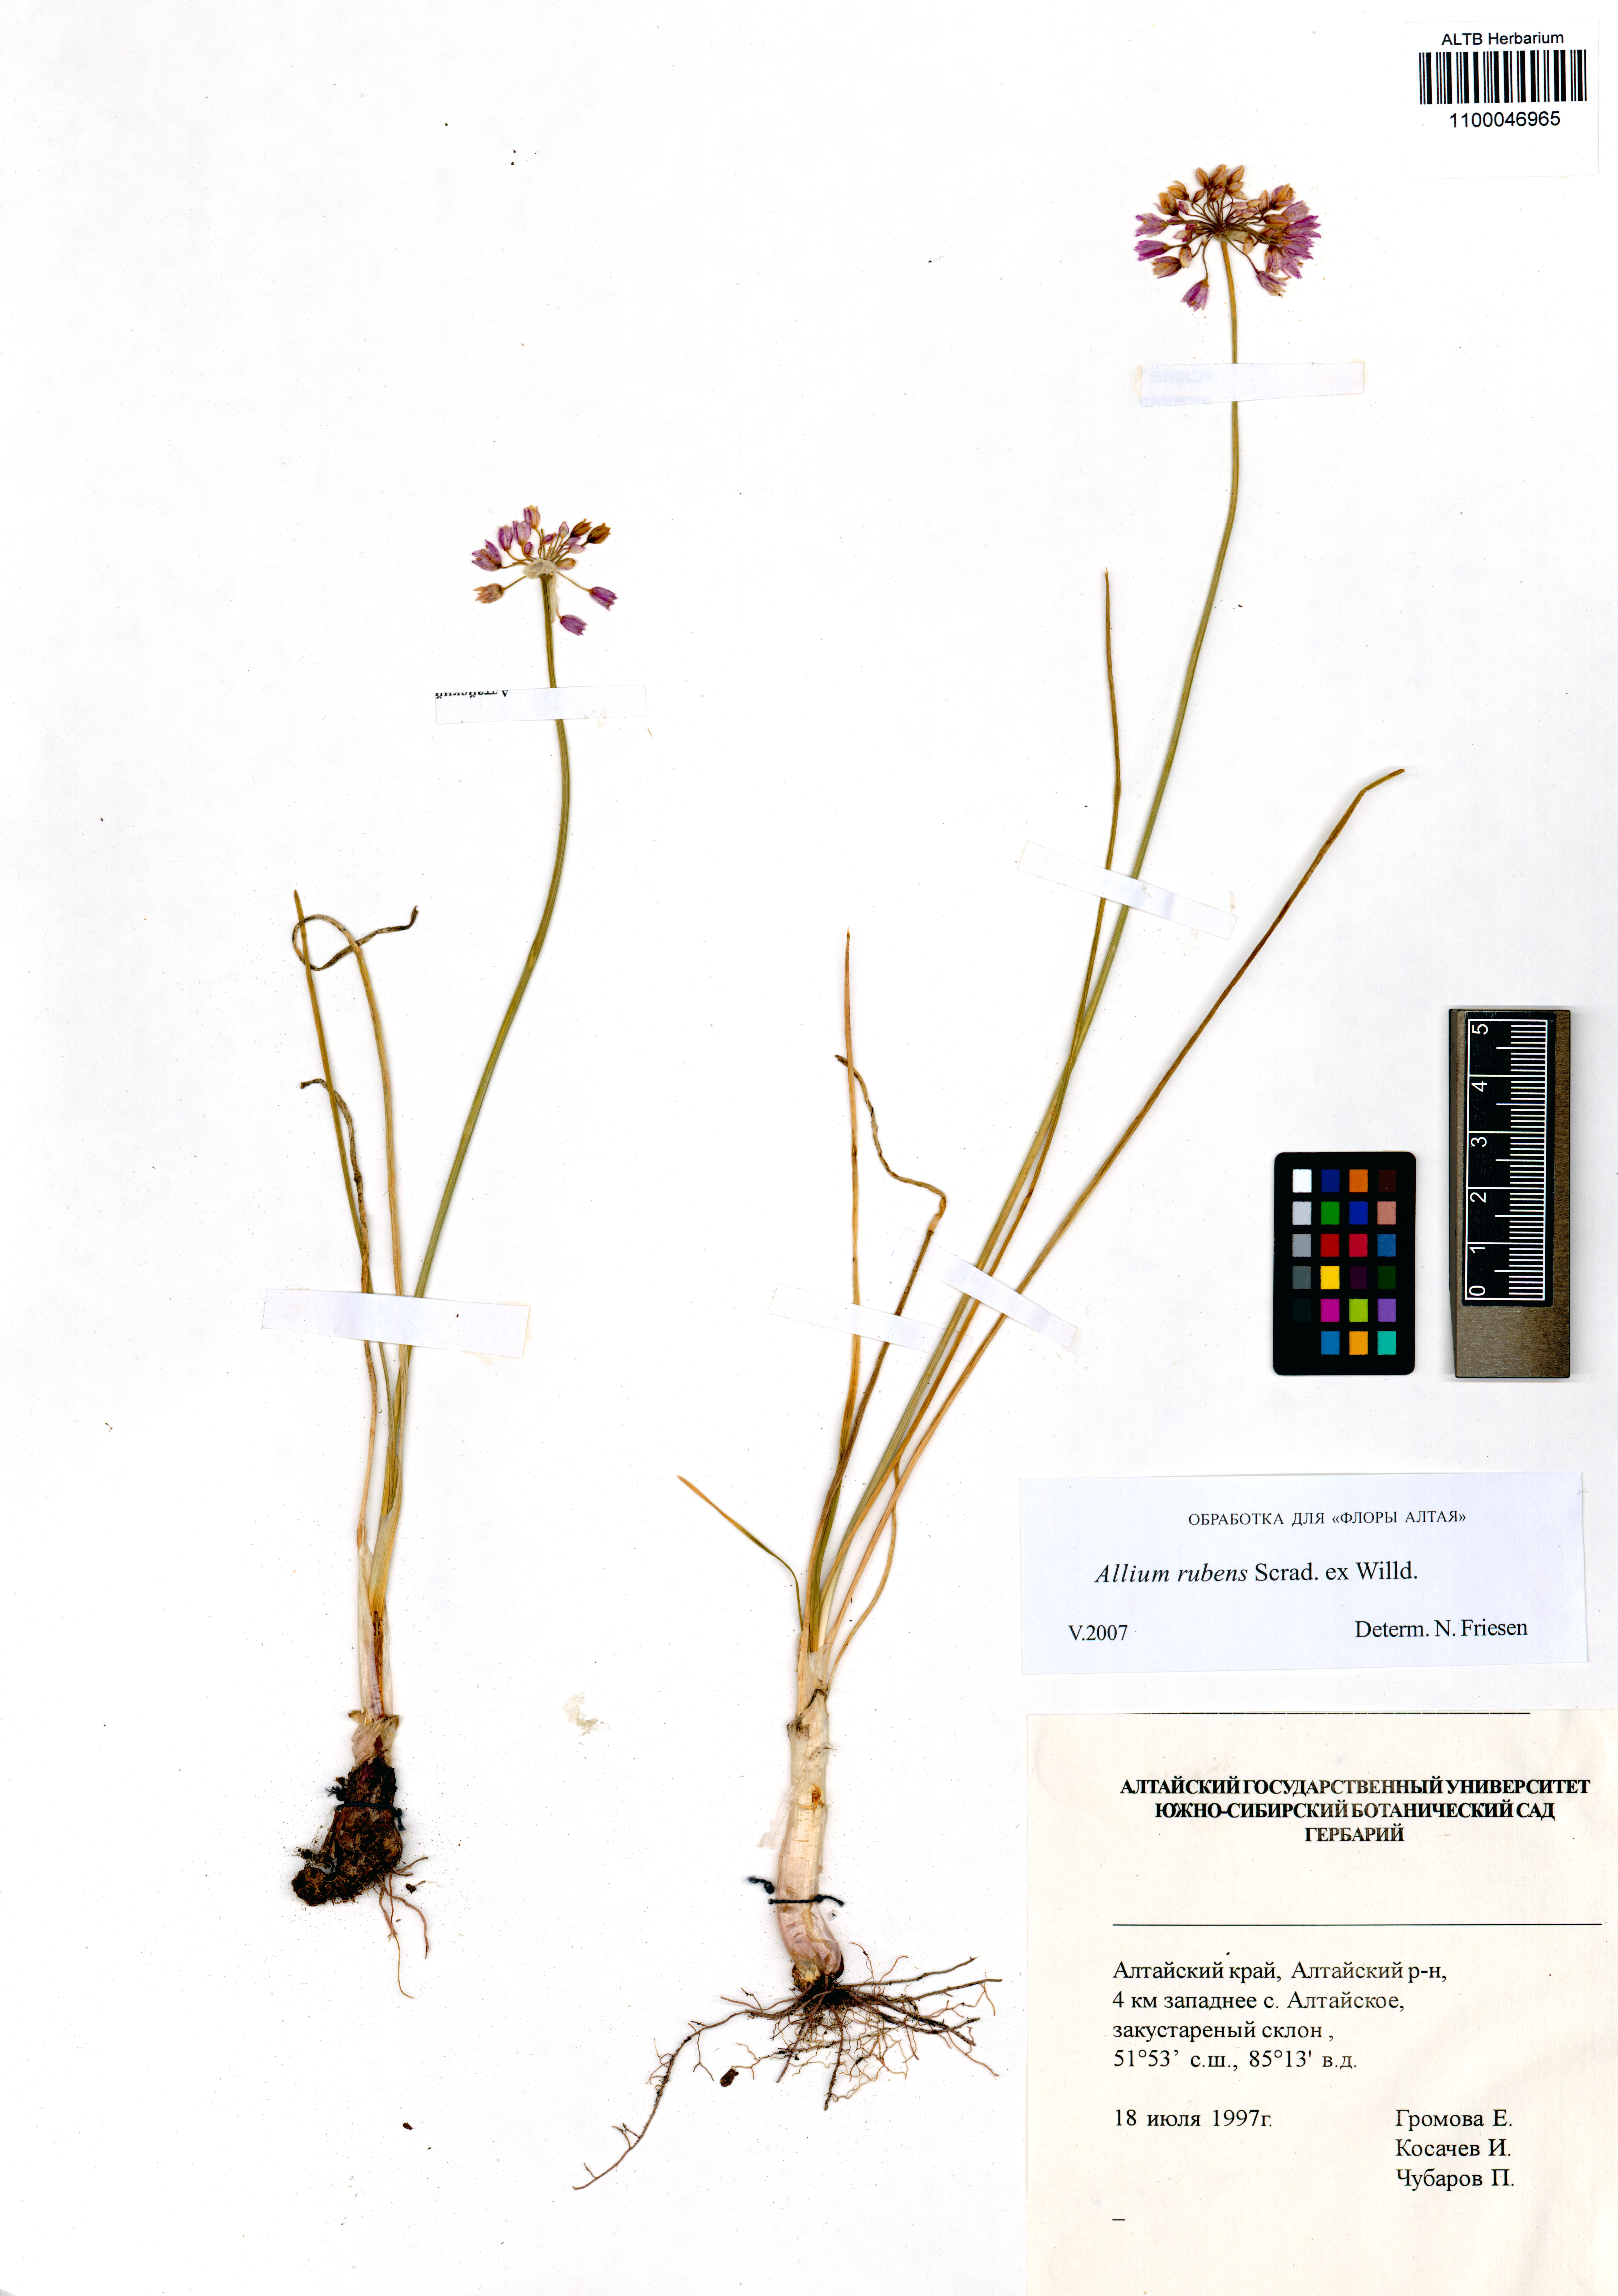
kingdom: Plantae
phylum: Tracheophyta
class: Liliopsida
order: Asparagales
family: Amaryllidaceae
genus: Allium
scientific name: Allium rubens
